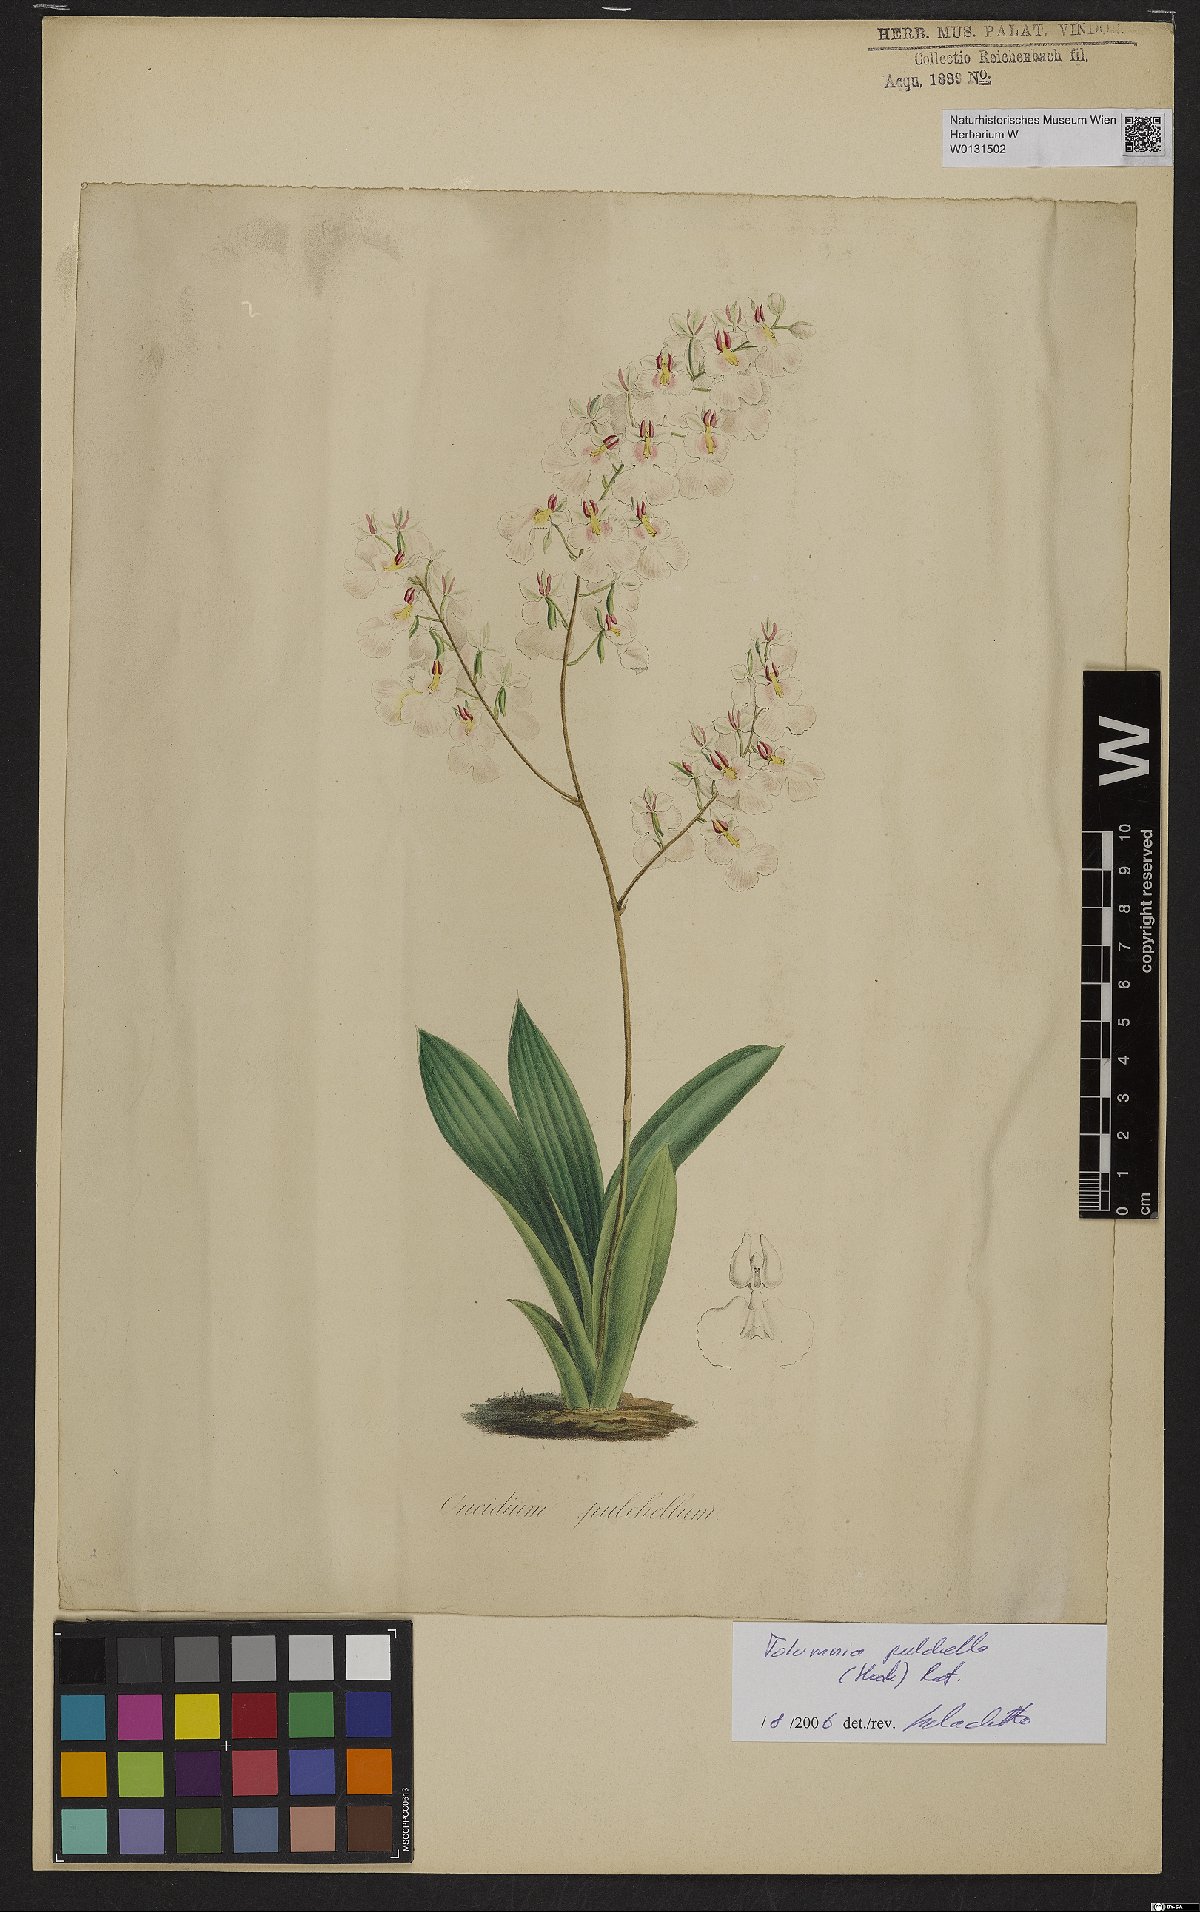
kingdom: Plantae
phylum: Tracheophyta
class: Liliopsida
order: Asparagales
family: Orchidaceae
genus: Tolumnia
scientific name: Tolumnia pulchella
